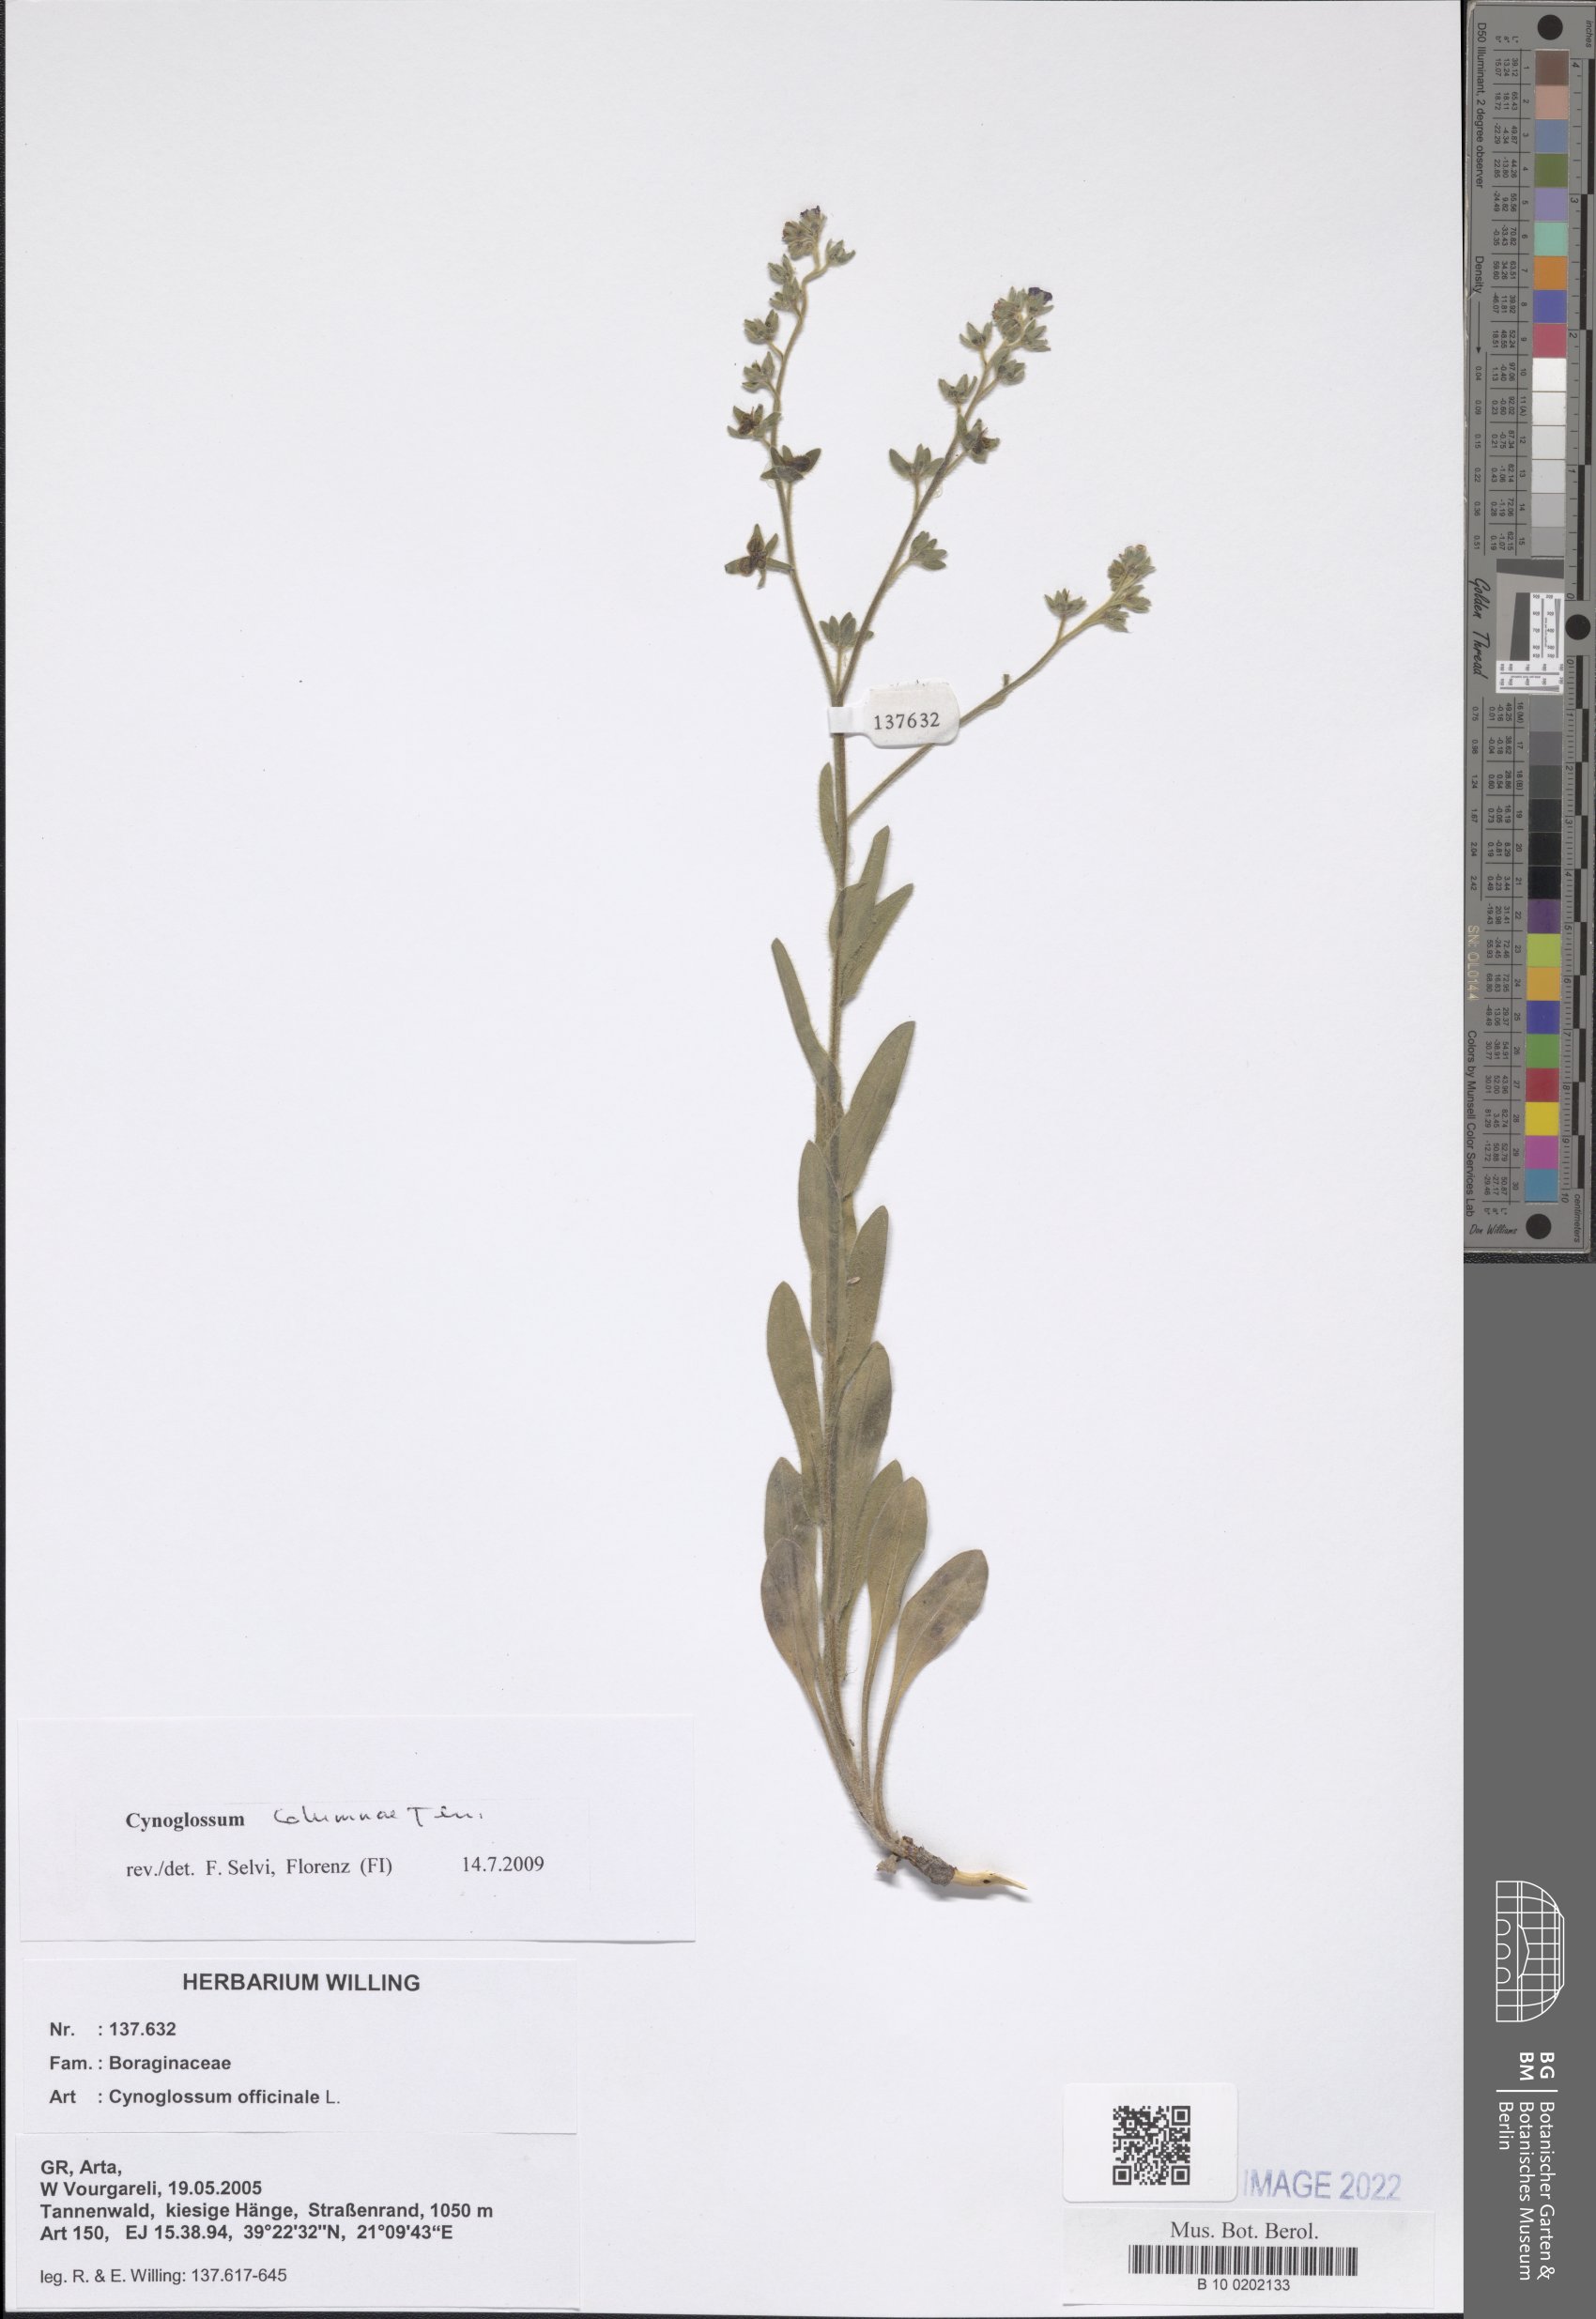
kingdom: Plantae
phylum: Tracheophyta
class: Magnoliopsida
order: Boraginales
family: Boraginaceae
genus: Rindera
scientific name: Rindera columnae
